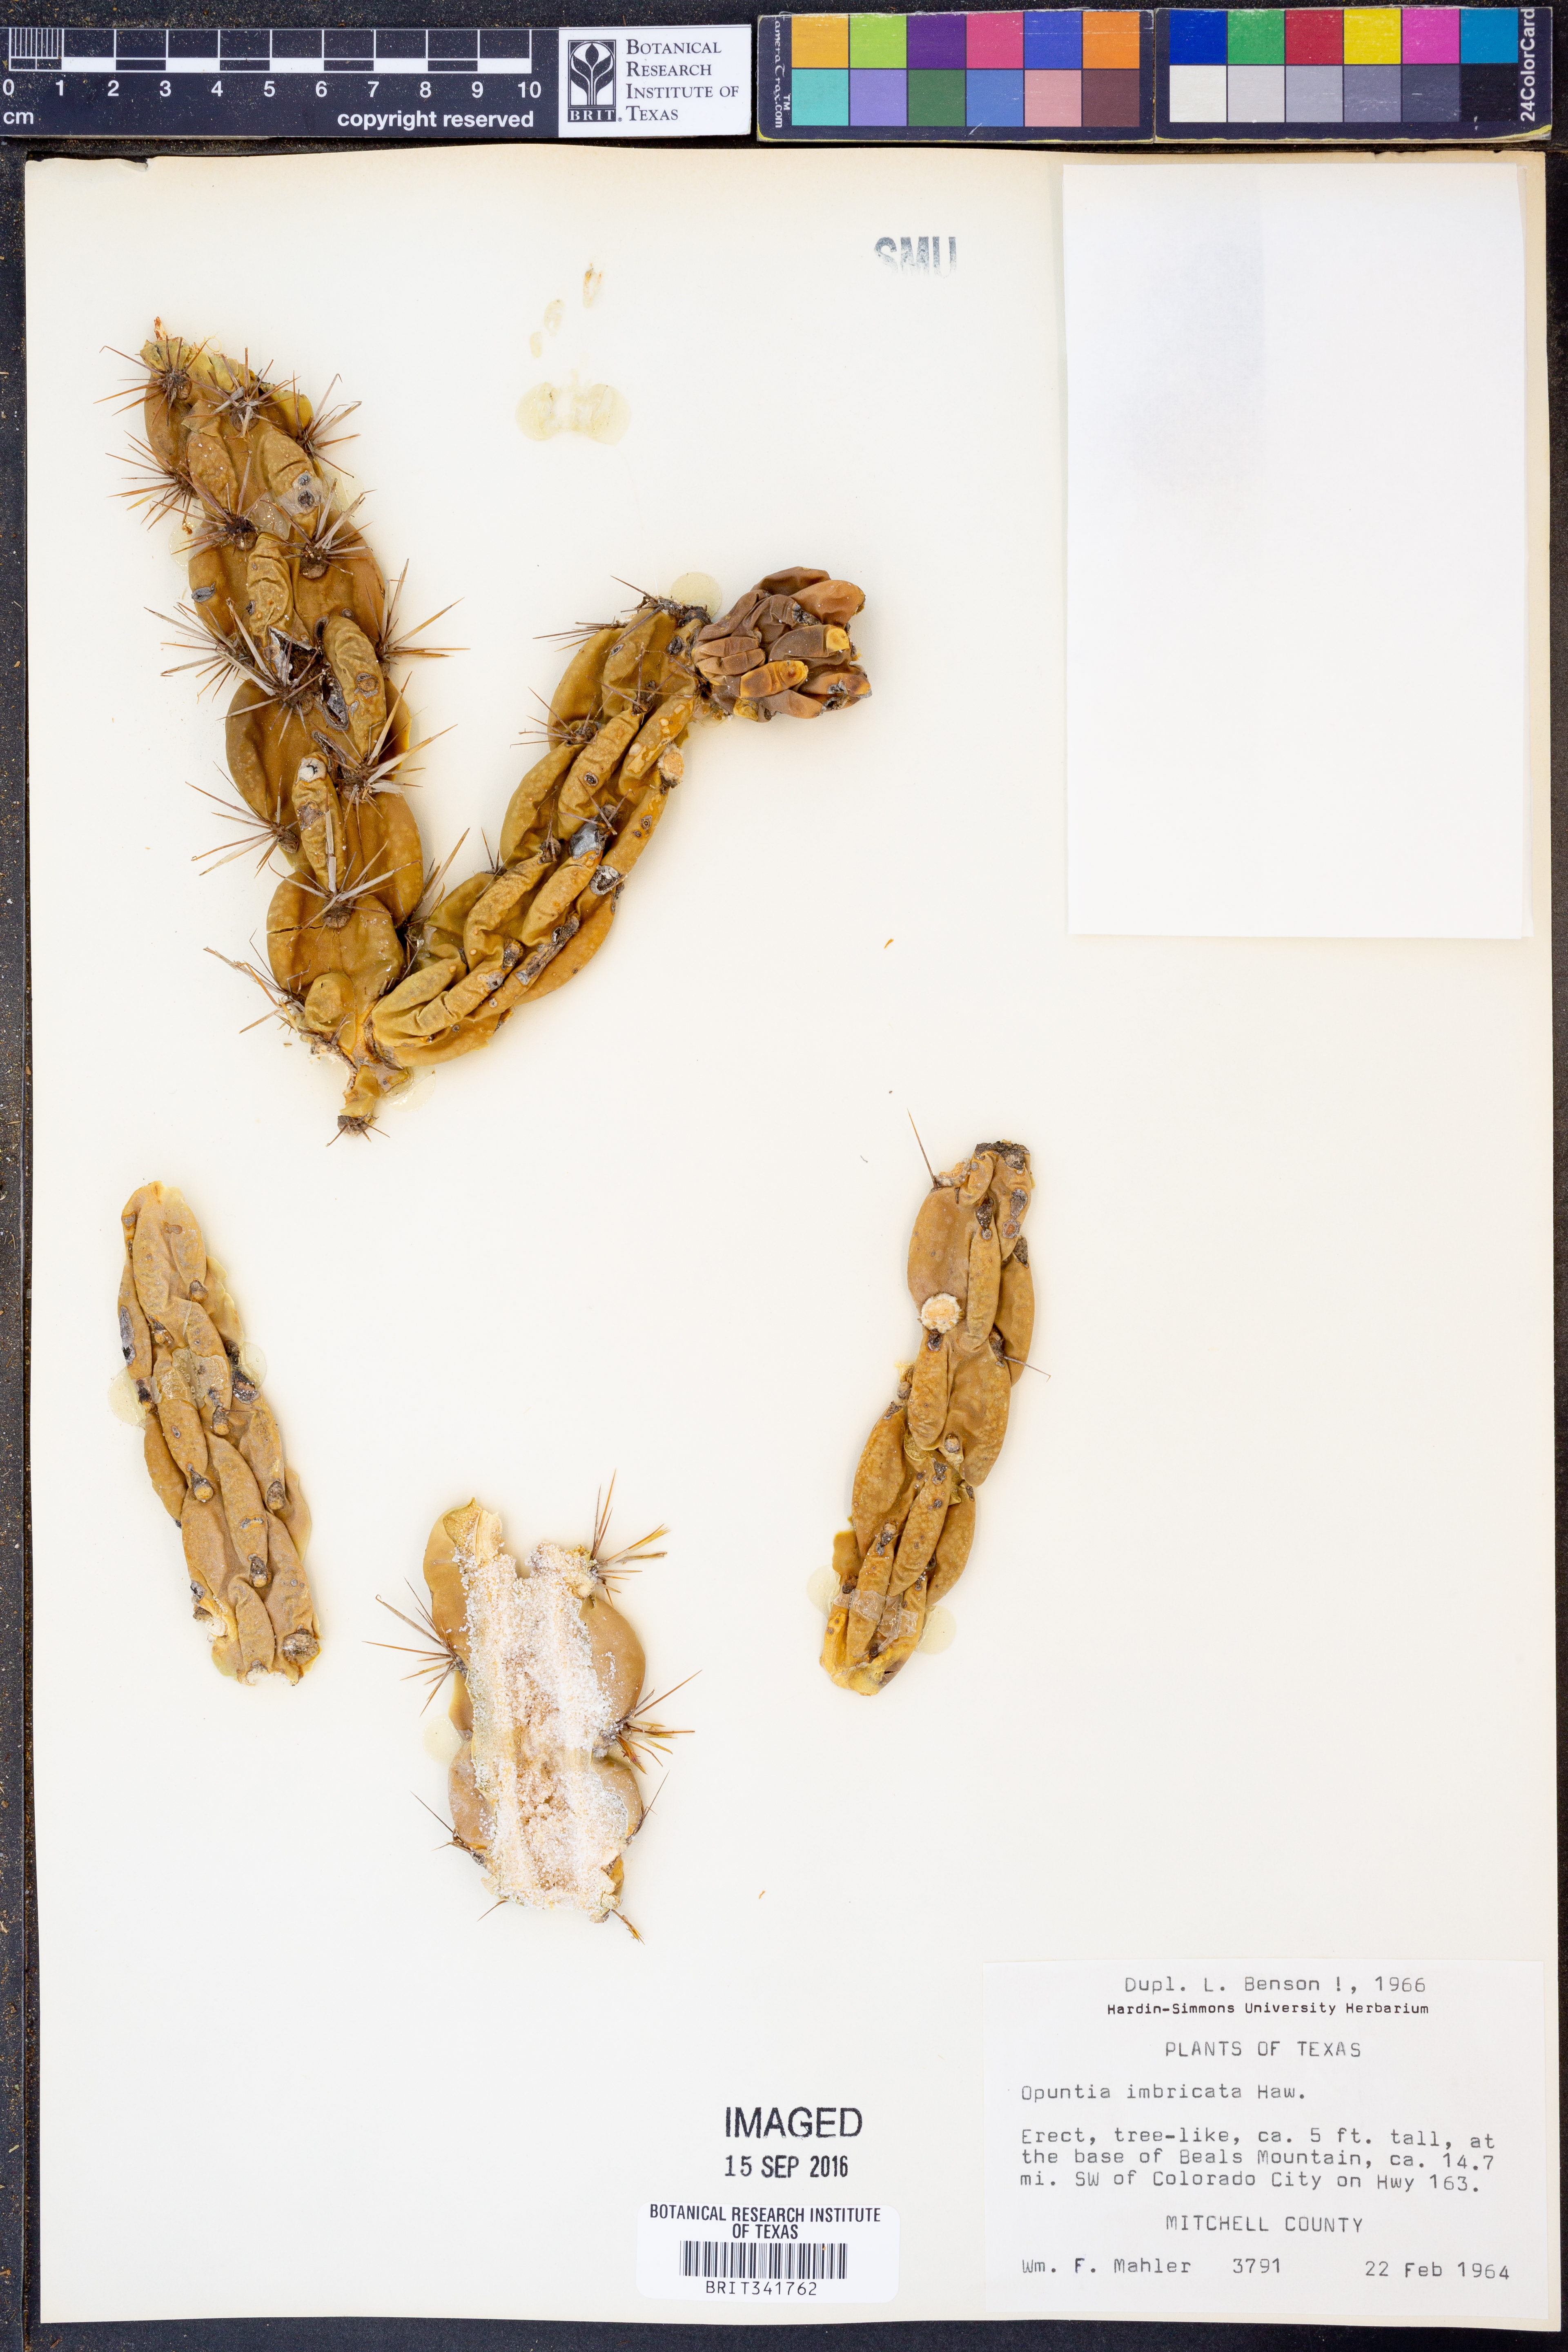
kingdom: Plantae
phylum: Tracheophyta
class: Magnoliopsida
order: Caryophyllales
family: Cactaceae
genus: Cylindropuntia
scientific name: Cylindropuntia imbricata
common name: Candelabrum cactus
